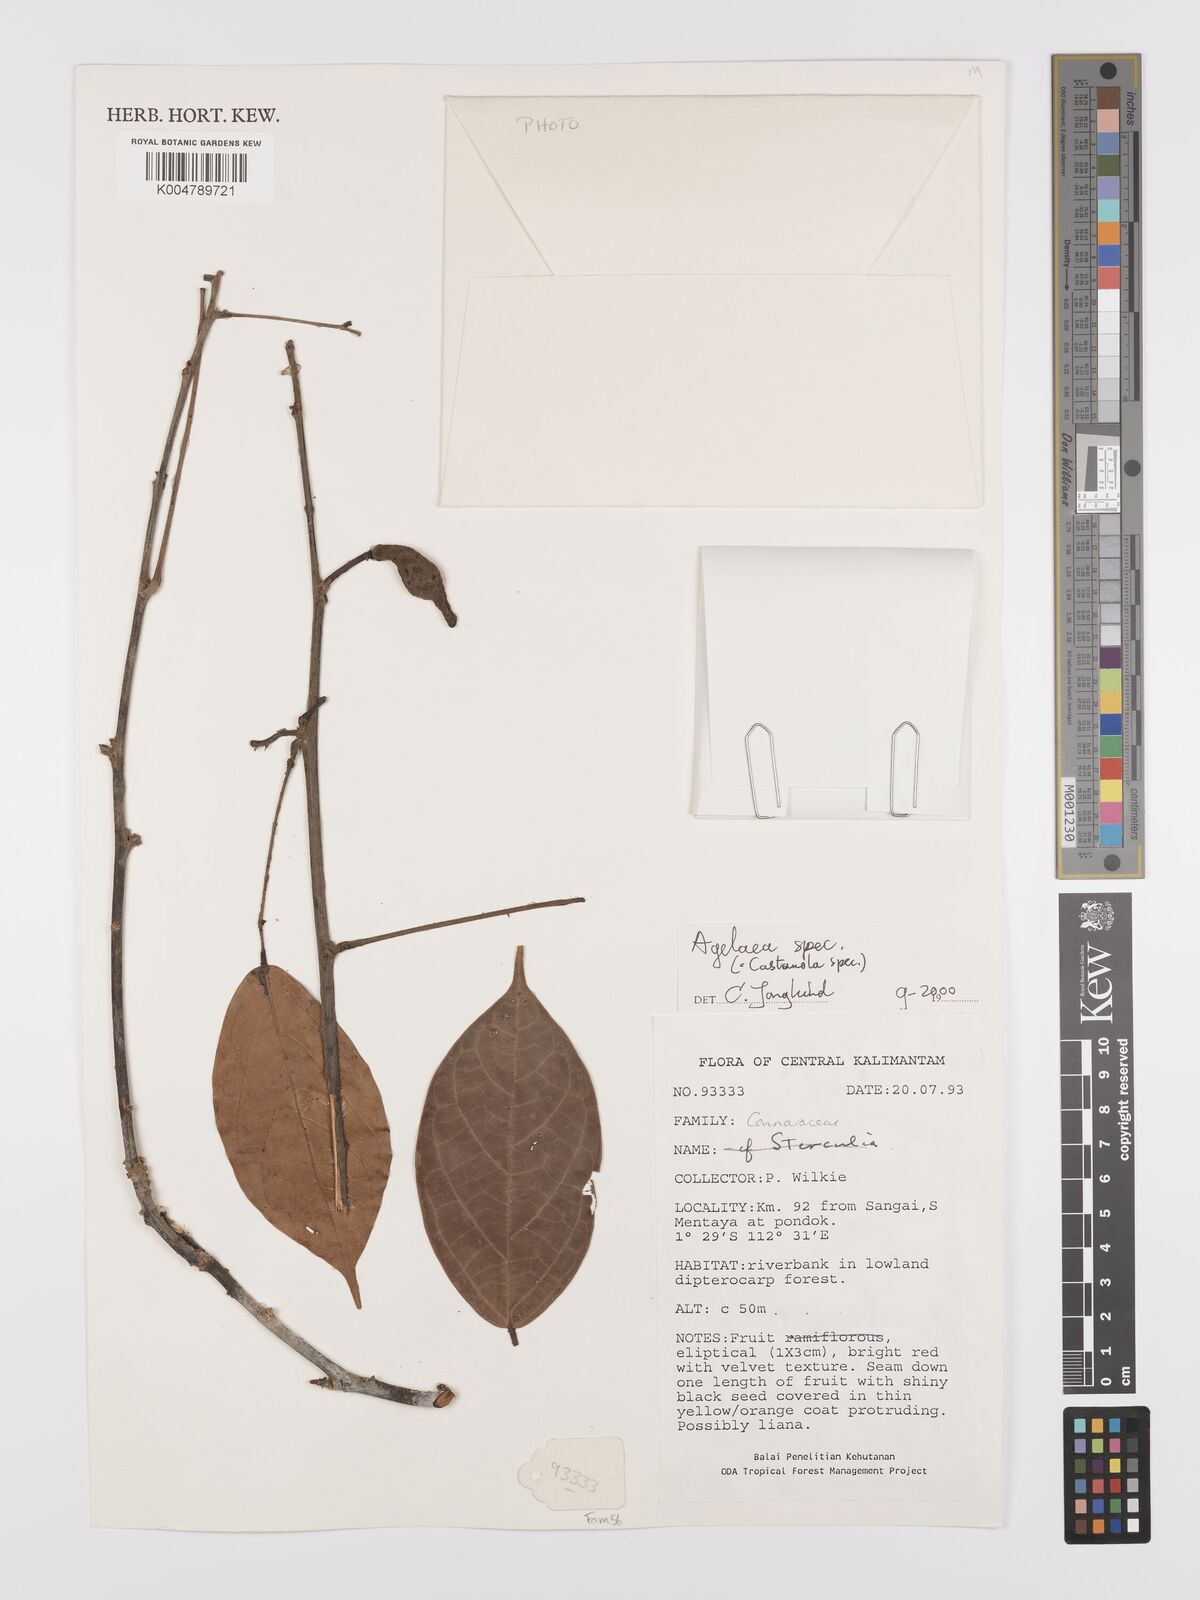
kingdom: Plantae
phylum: Tracheophyta
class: Magnoliopsida
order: Oxalidales
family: Connaraceae
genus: Agelaea
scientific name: Agelaea insignis
